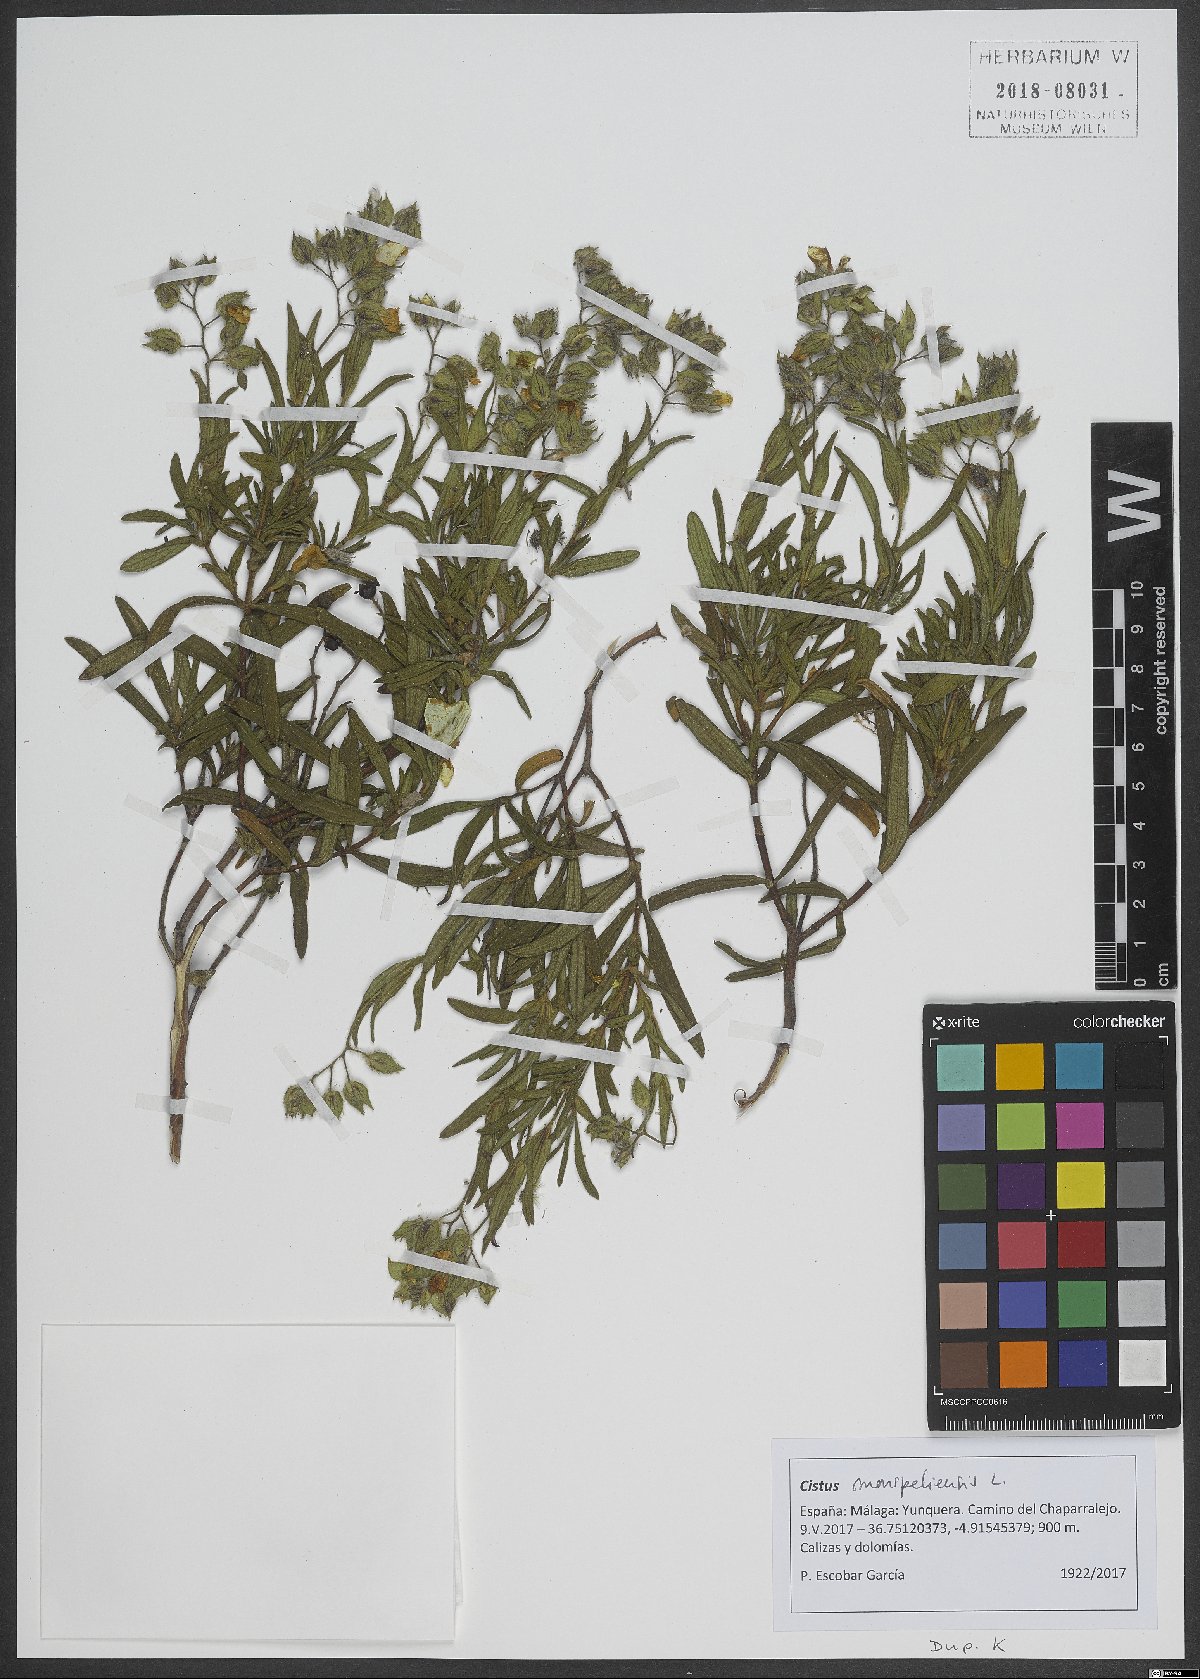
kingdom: Plantae
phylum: Tracheophyta
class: Magnoliopsida
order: Malvales
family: Cistaceae
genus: Cistus
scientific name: Cistus monspeliensis
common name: Montpelier cistus
